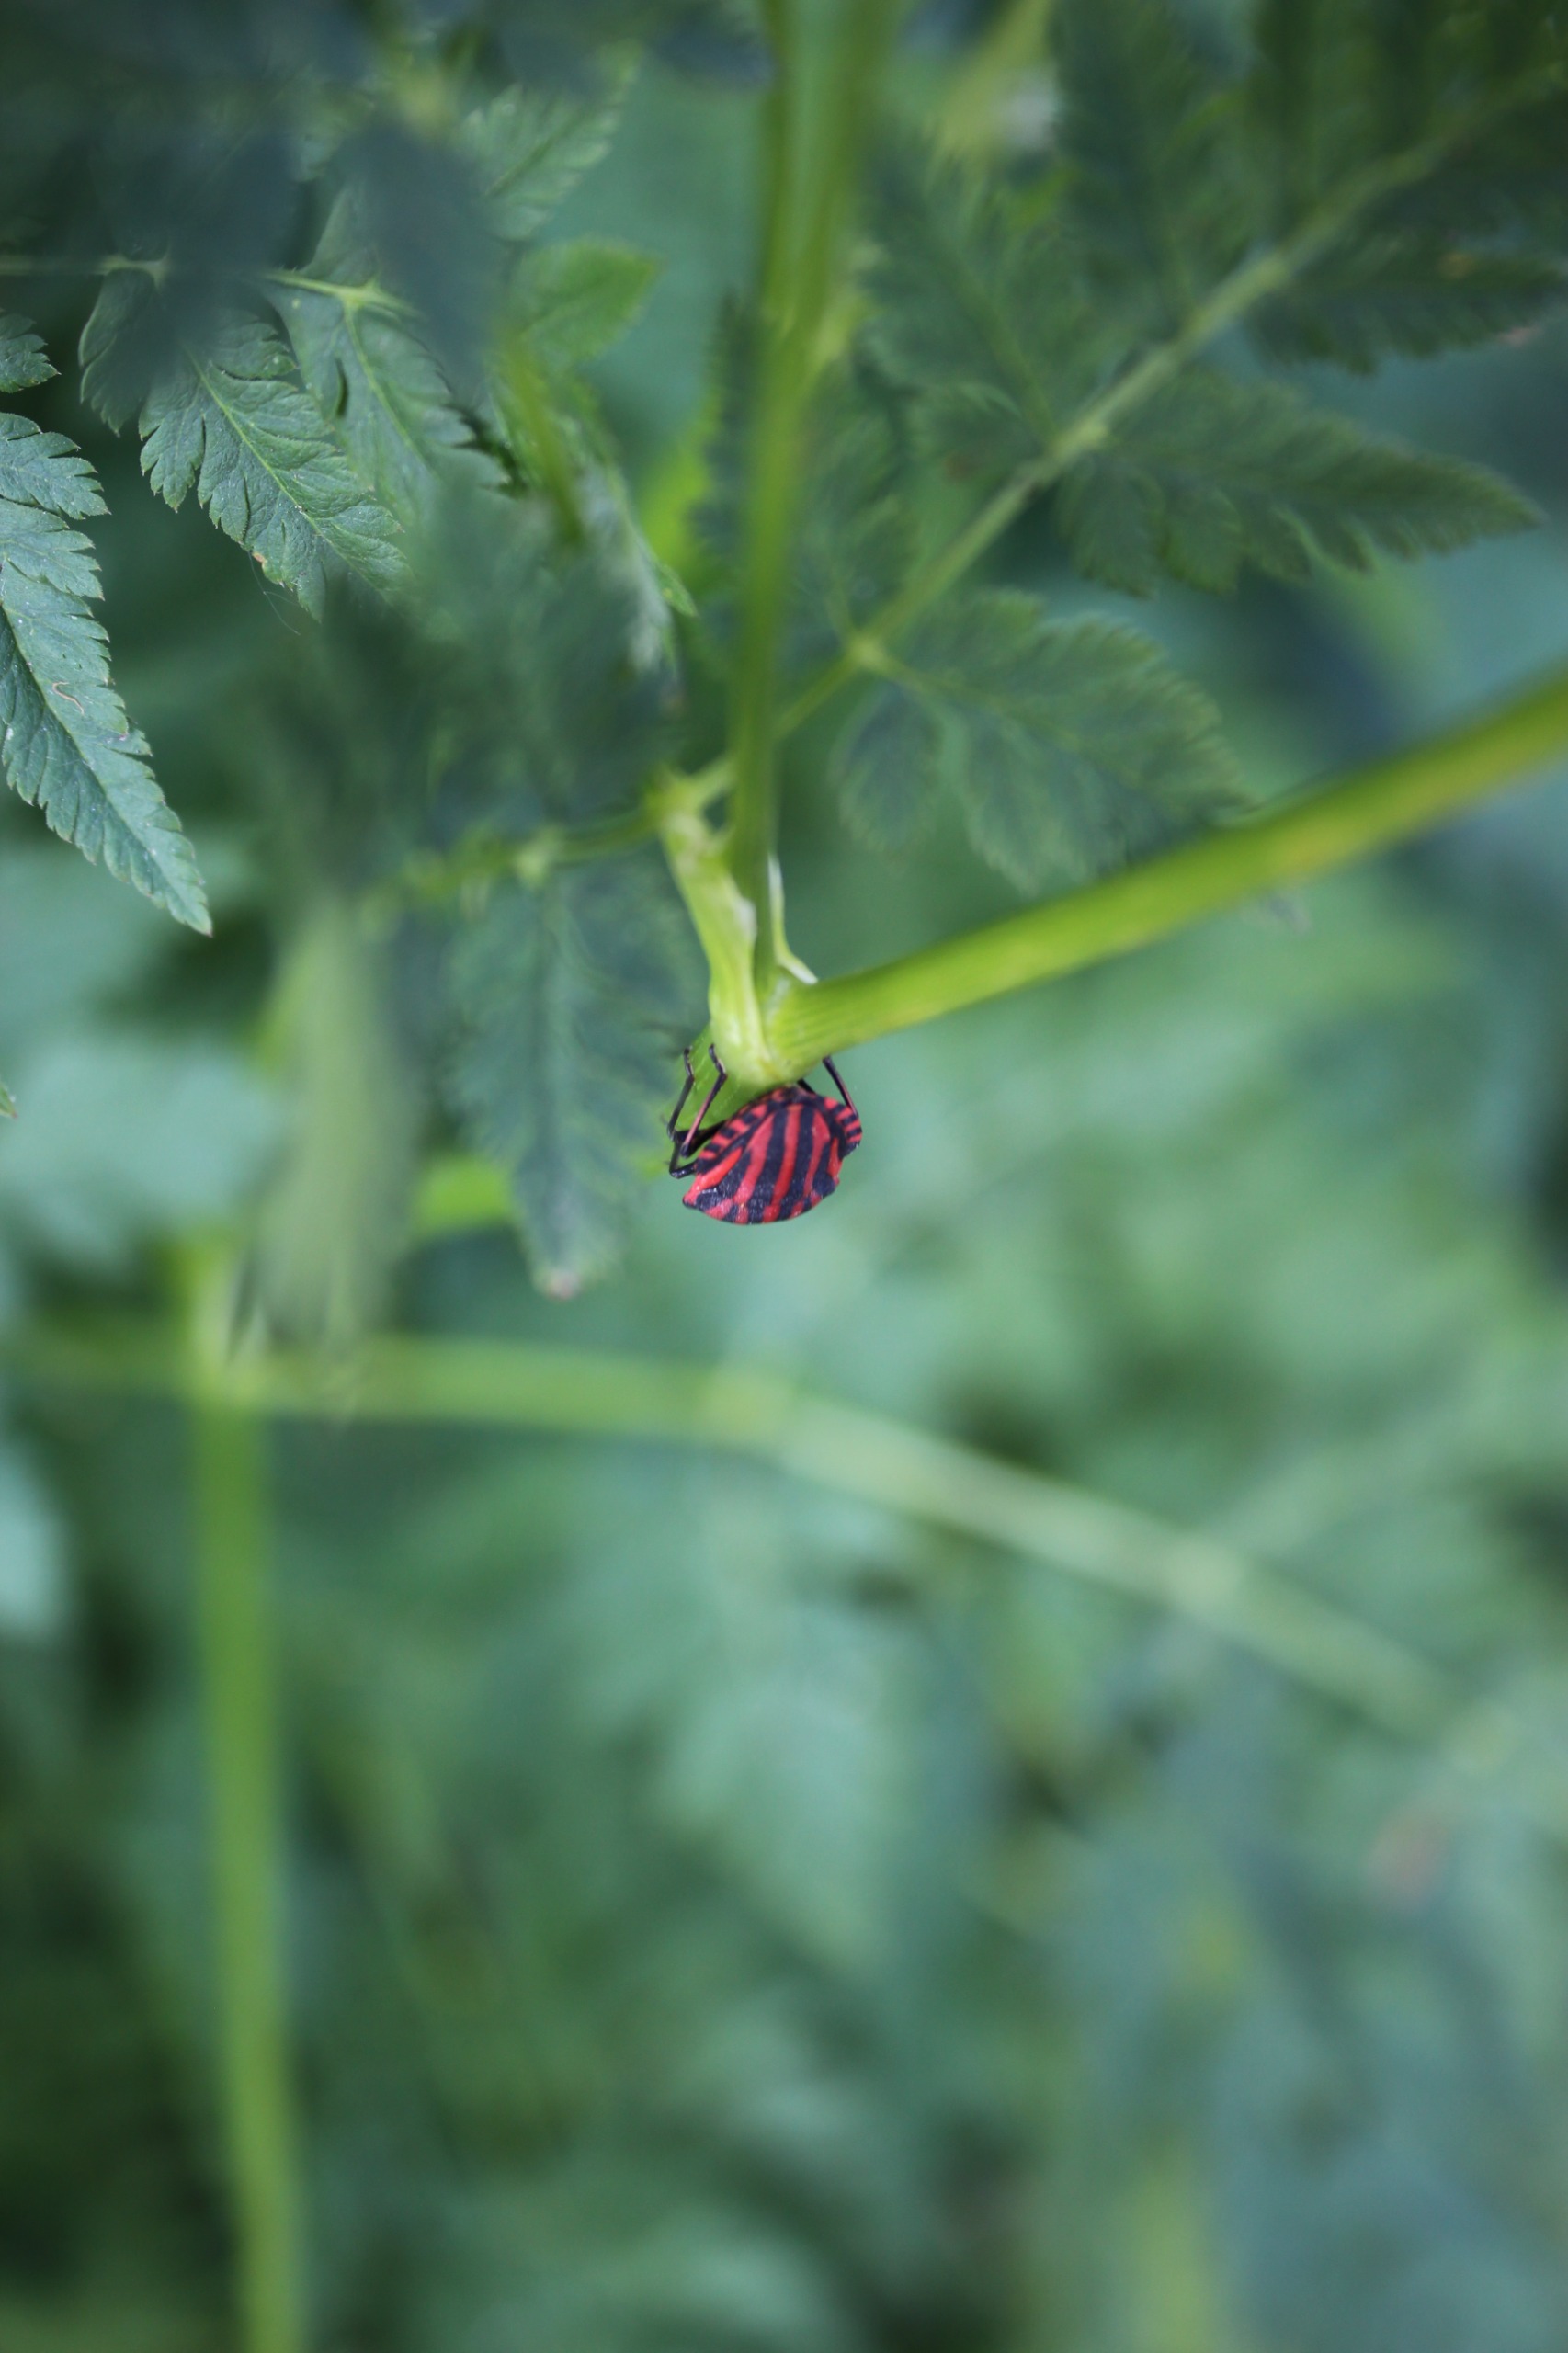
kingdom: Animalia
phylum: Arthropoda
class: Insecta
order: Hemiptera
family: Pentatomidae
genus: Graphosoma
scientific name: Graphosoma italicum
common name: Stribetæge
